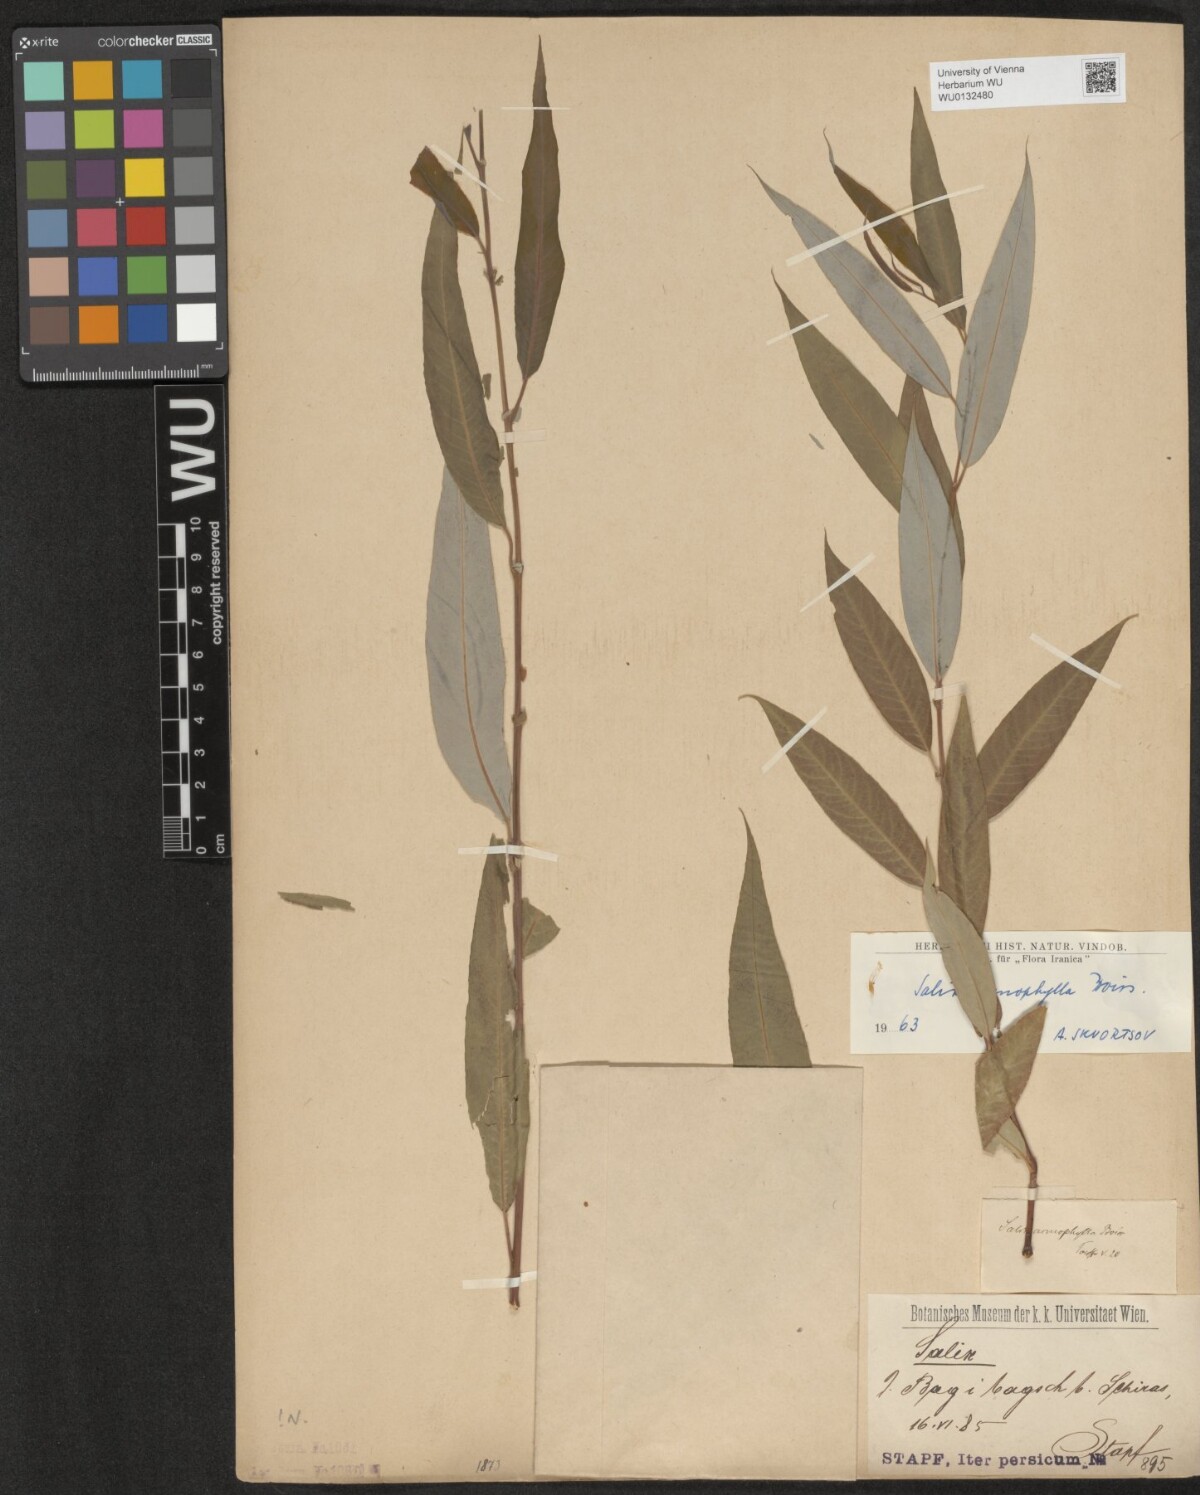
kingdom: Plantae
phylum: Tracheophyta
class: Magnoliopsida
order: Malpighiales
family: Salicaceae
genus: Salix
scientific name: Salix acmophylla
